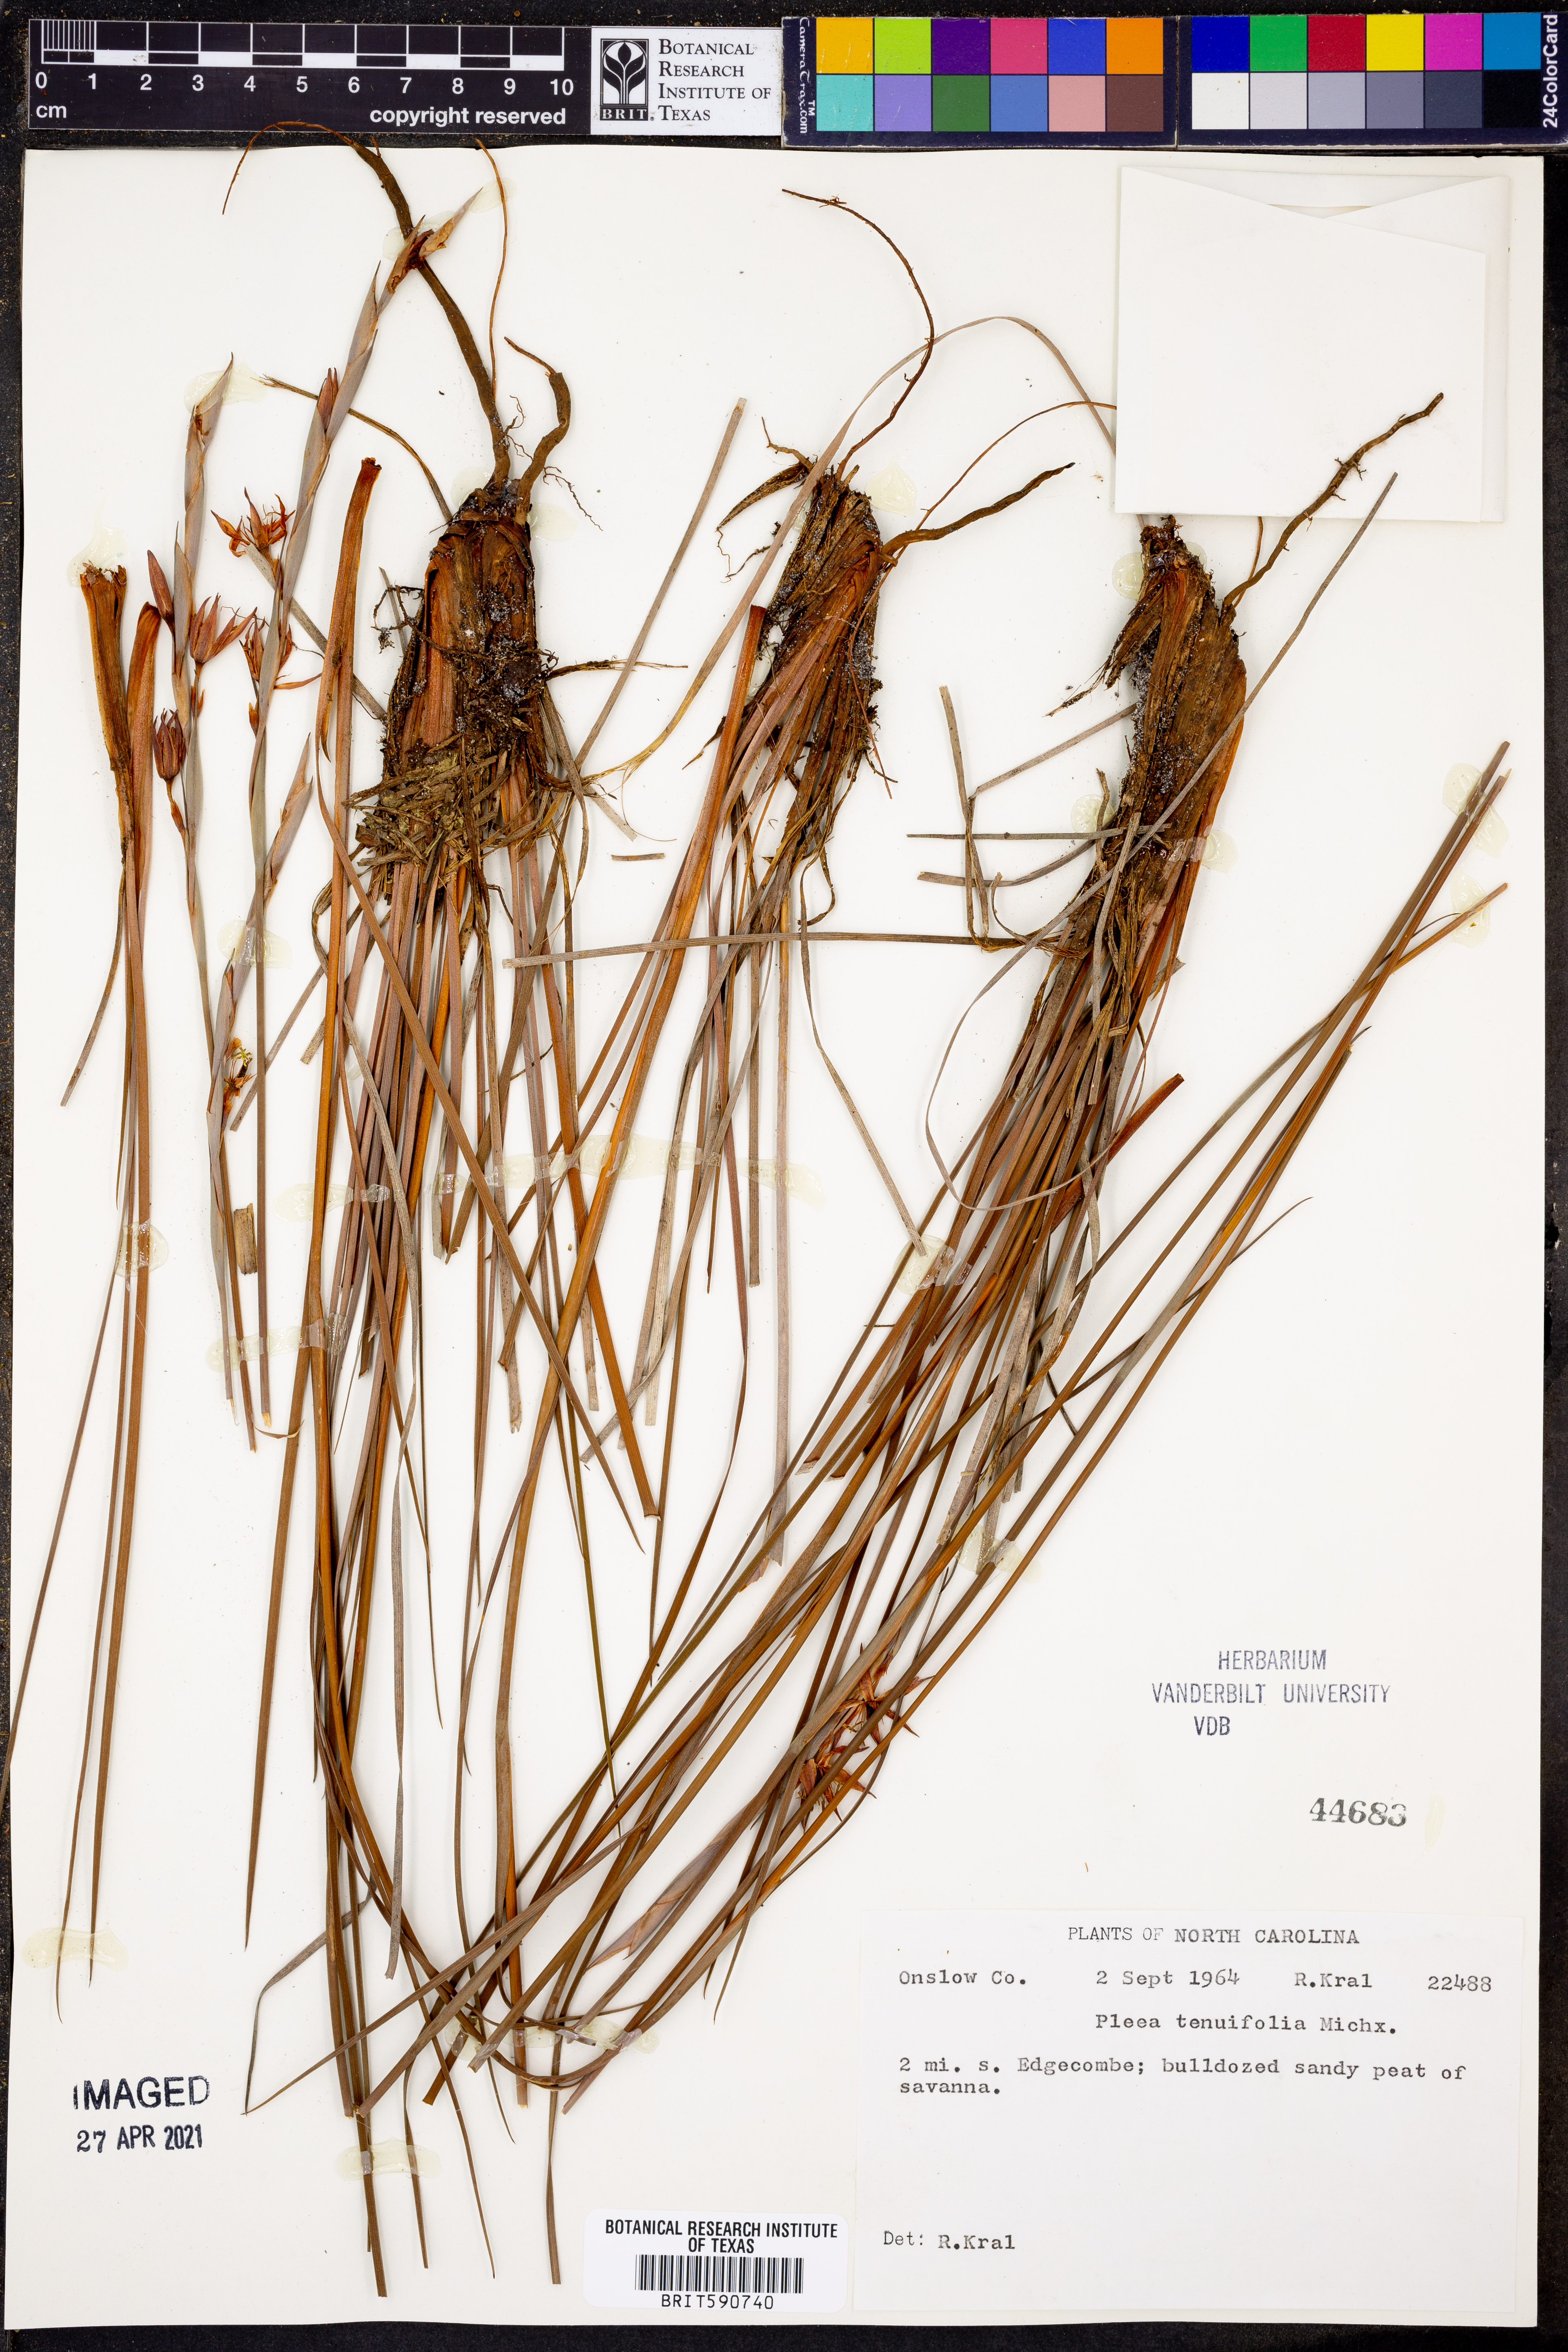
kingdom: Plantae
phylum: Tracheophyta
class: Liliopsida
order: Alismatales
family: Tofieldiaceae
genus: Pleea
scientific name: Pleea tenuifolia
